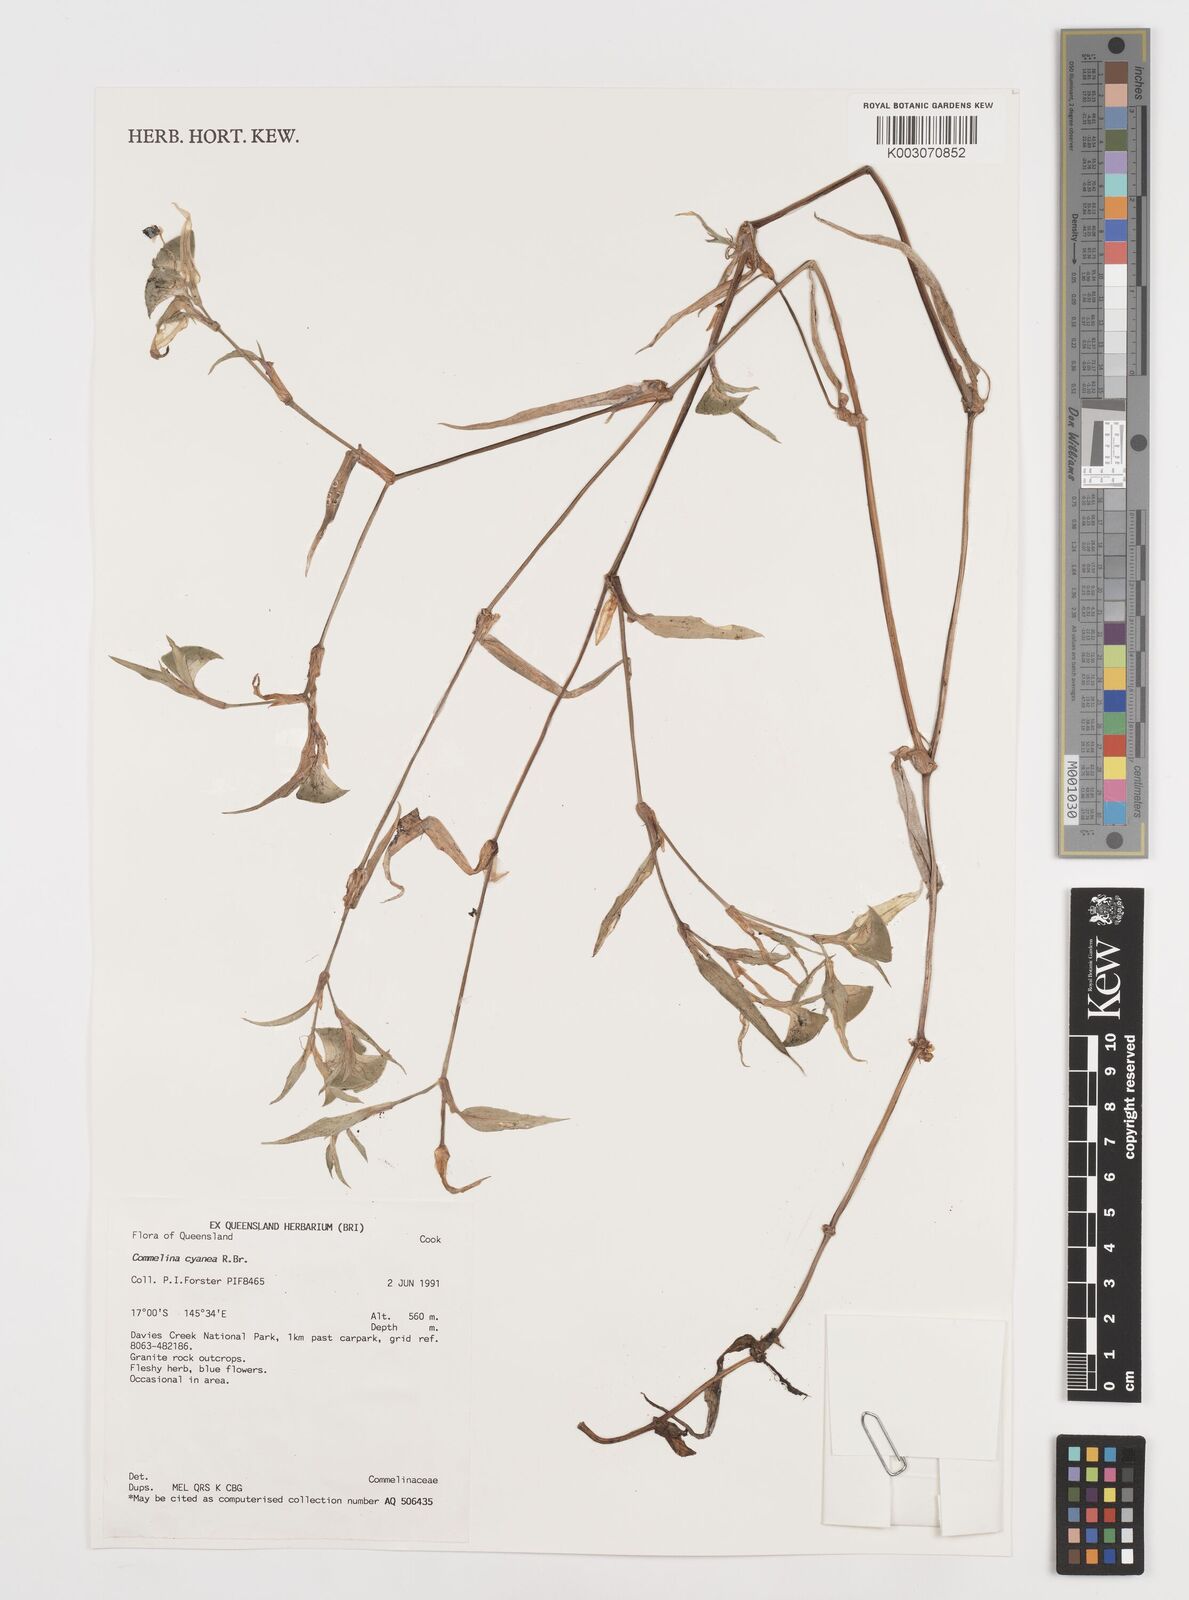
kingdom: Plantae
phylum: Tracheophyta
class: Liliopsida
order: Commelinales
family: Commelinaceae
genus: Commelina
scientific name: Commelina cyanea
